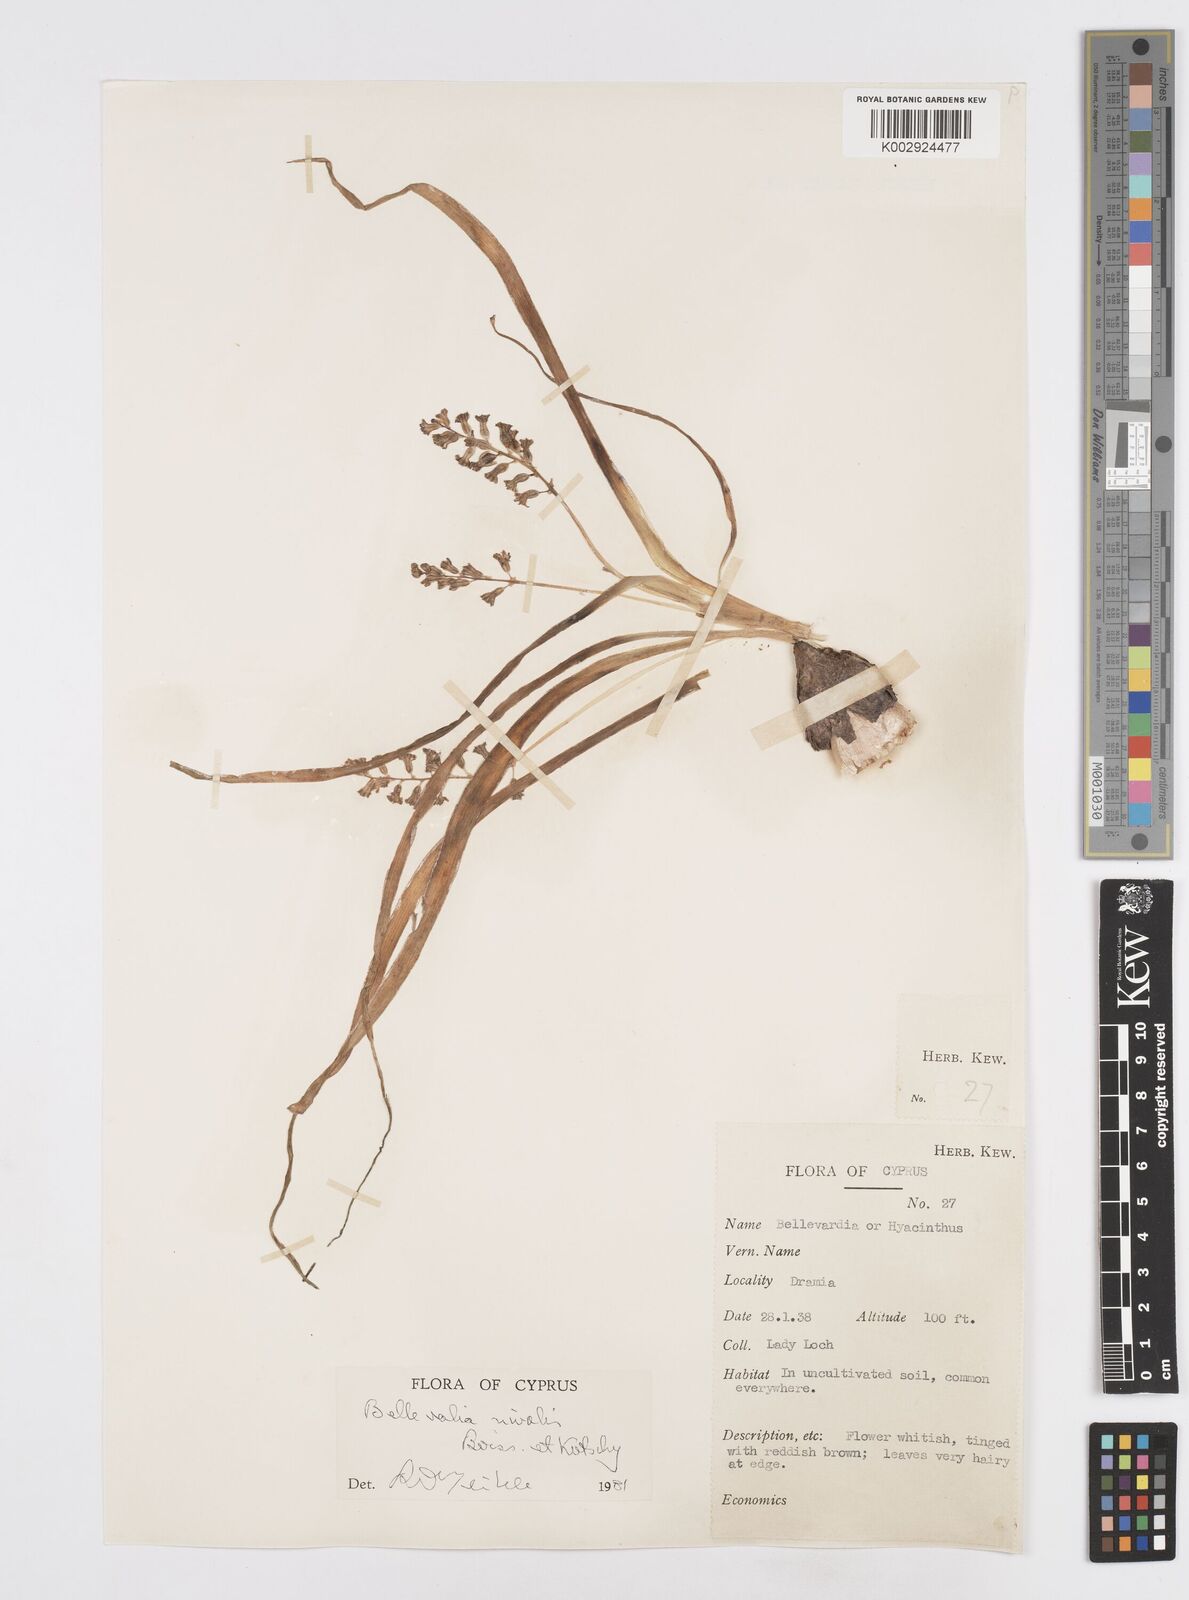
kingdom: Plantae
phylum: Tracheophyta
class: Liliopsida
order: Asparagales
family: Asparagaceae
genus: Bellevalia
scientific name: Bellevalia nivalis
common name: Snow bellevalia
